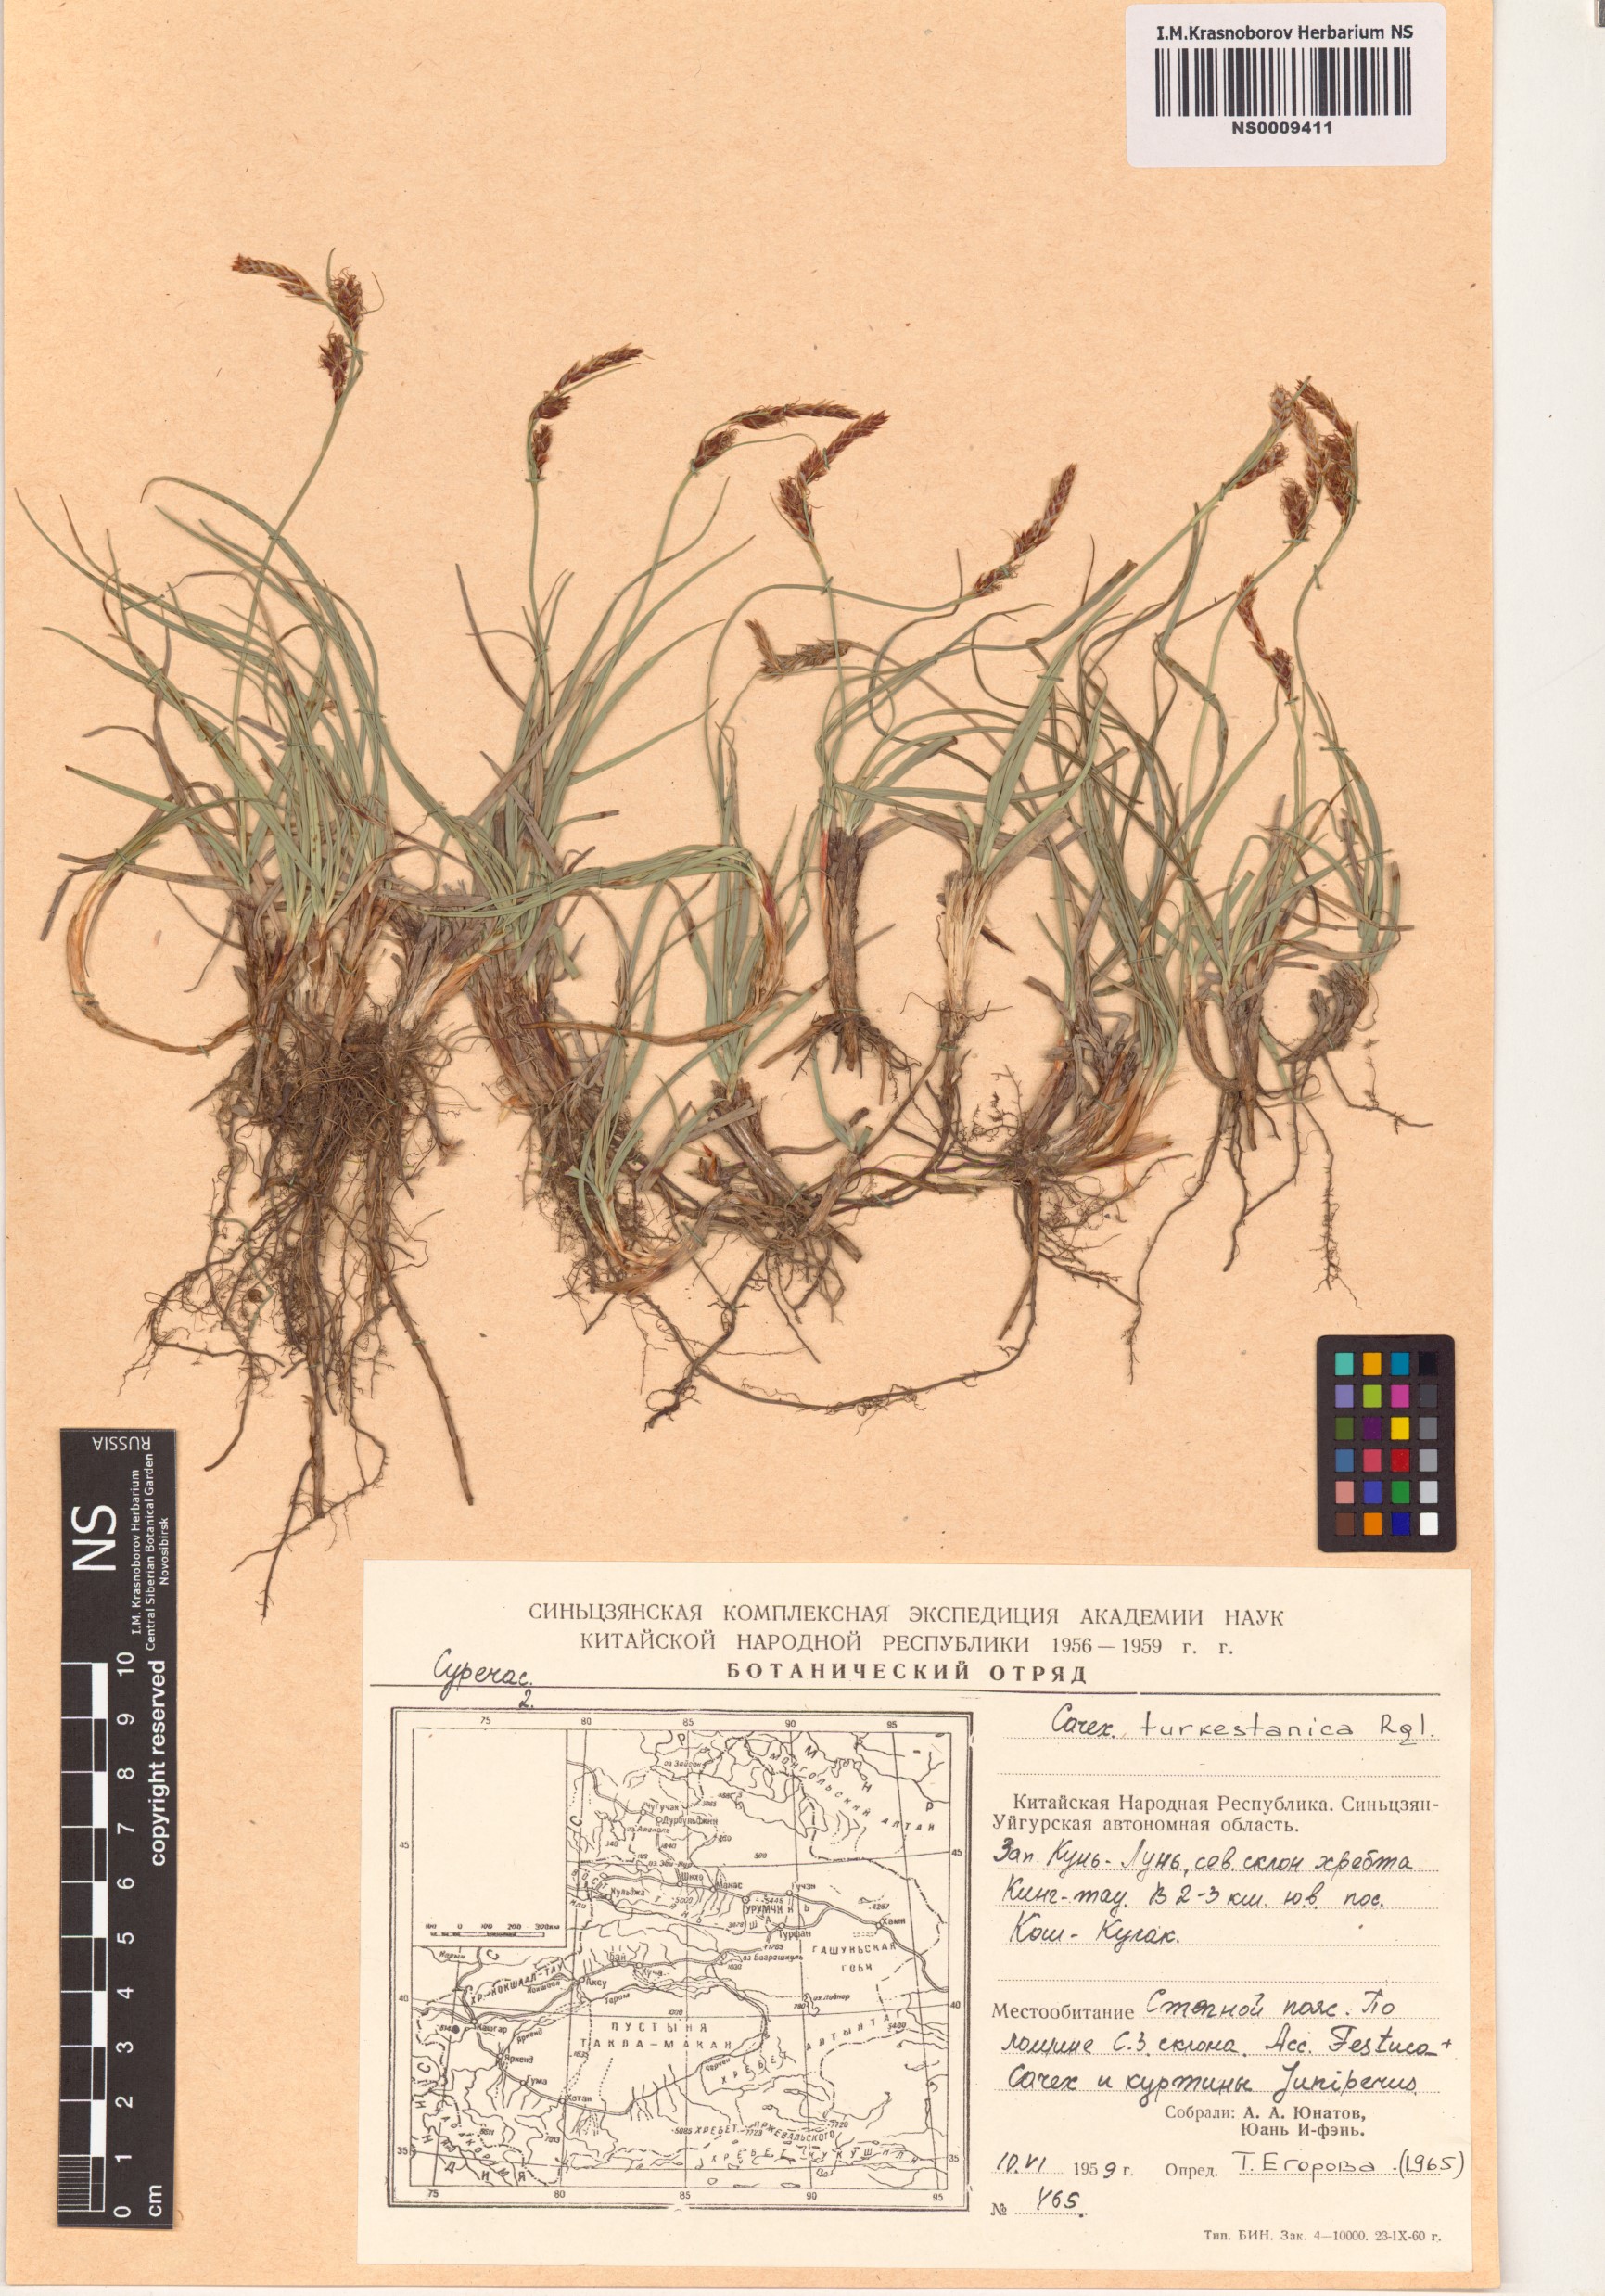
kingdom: Plantae
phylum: Tracheophyta
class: Liliopsida
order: Poales
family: Cyperaceae
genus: Carex
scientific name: Carex turkestanica
